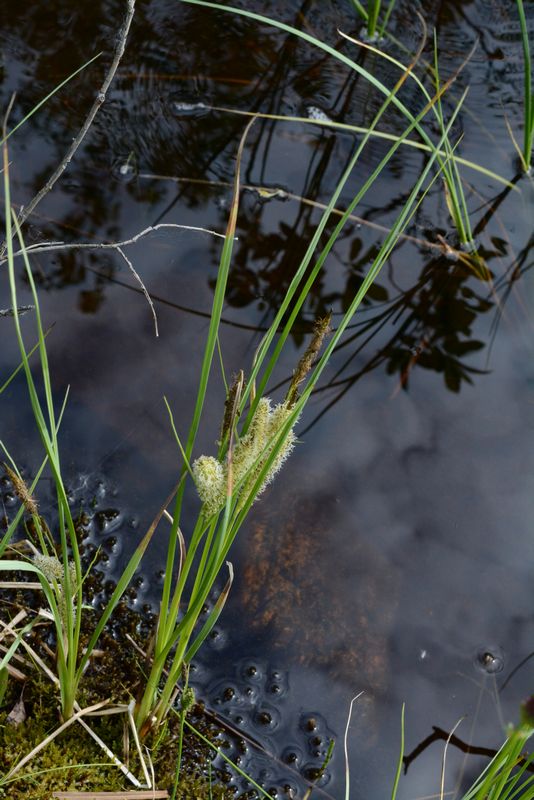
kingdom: Plantae
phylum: Tracheophyta
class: Liliopsida
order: Poales
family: Cyperaceae
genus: Carex
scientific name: Carex rostrata
